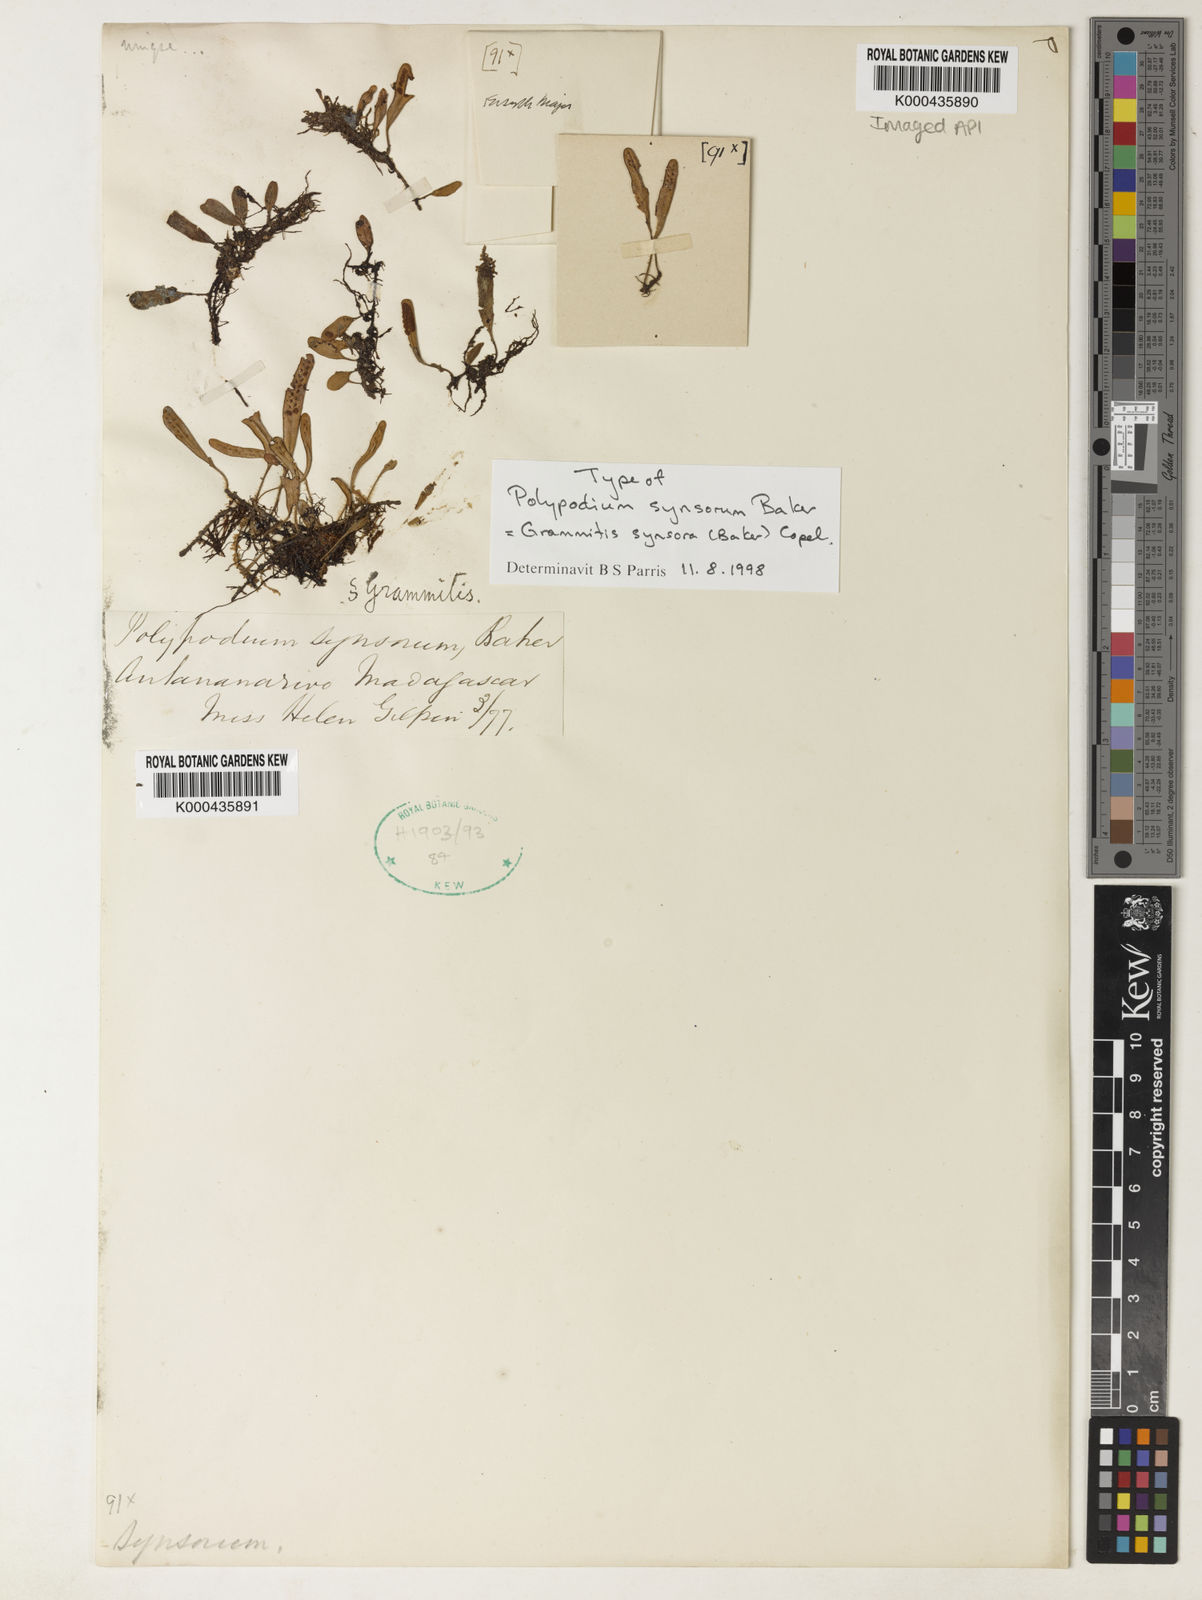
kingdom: Plantae
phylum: Tracheophyta
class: Polypodiopsida
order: Polypodiales
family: Polypodiaceae
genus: Grammitis
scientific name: Grammitis synsora
